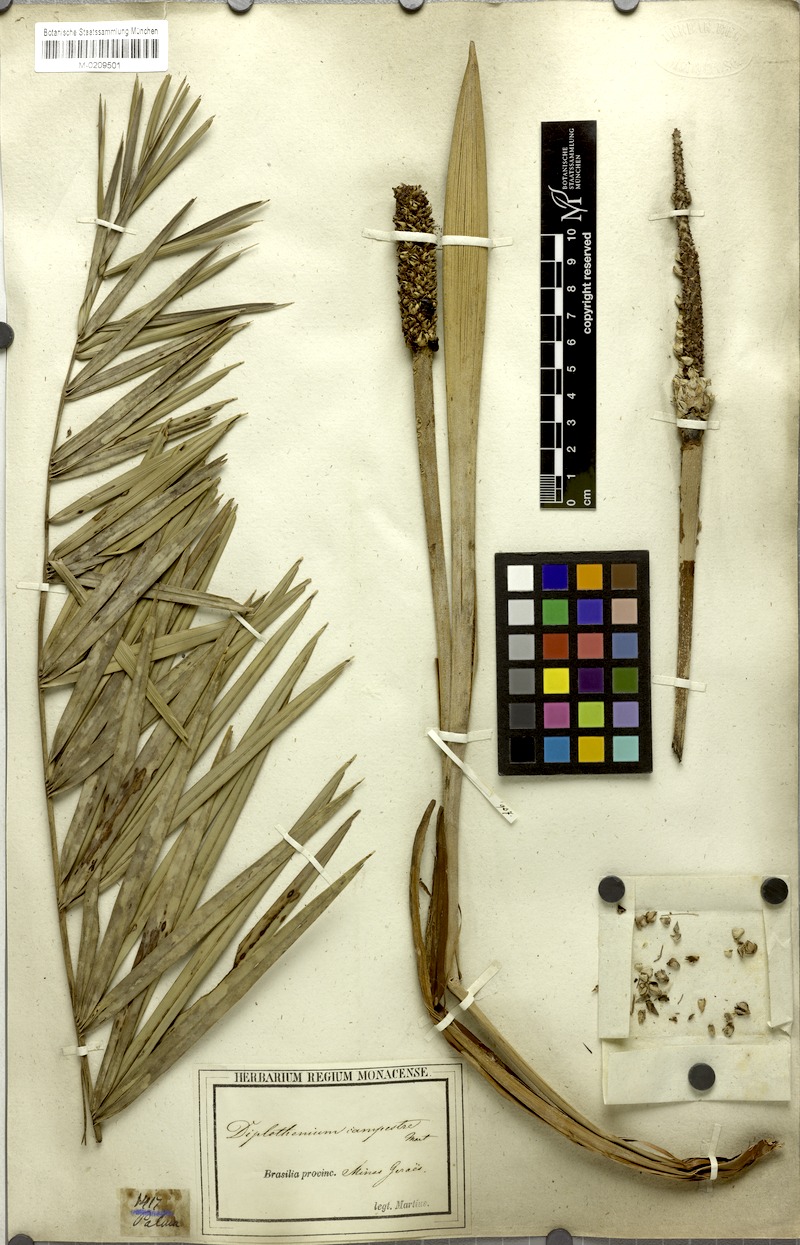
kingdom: Plantae
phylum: Tracheophyta
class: Liliopsida
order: Arecales
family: Arecaceae
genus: Allagoptera
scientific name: Allagoptera campestris
